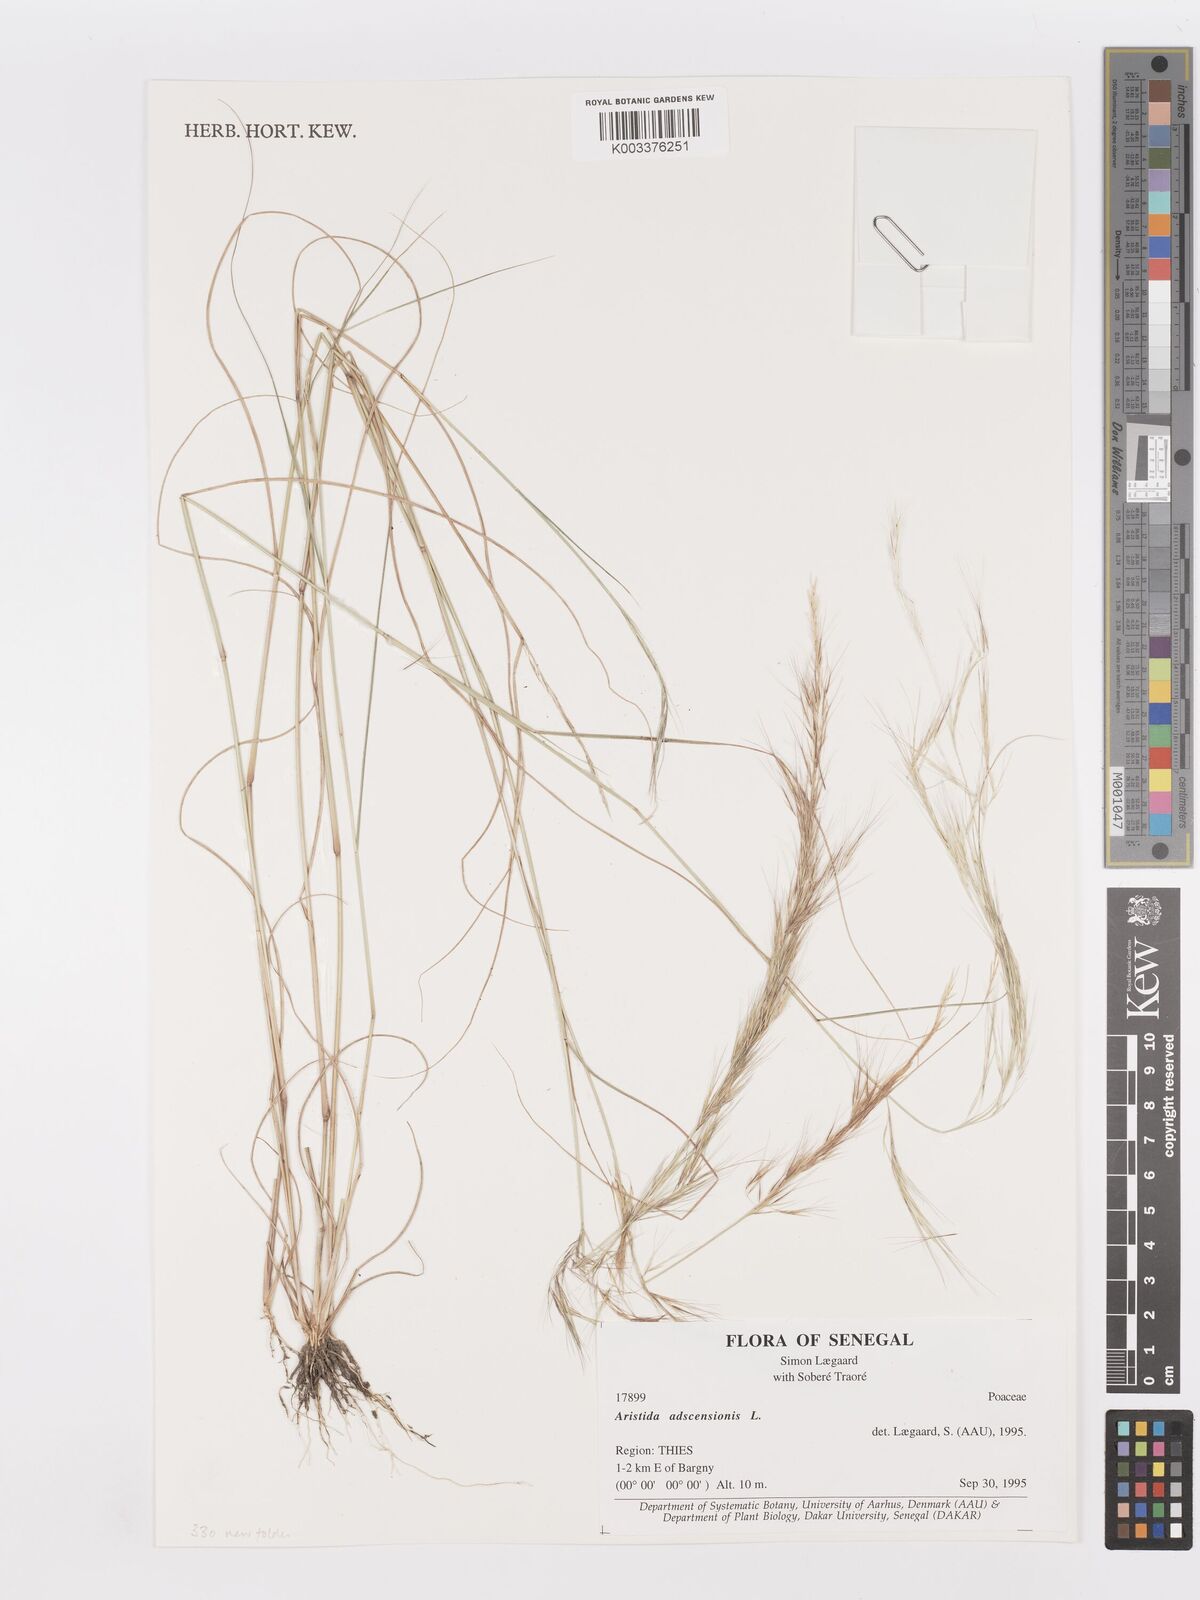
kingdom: Plantae
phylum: Tracheophyta
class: Liliopsida
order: Poales
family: Poaceae
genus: Aristida
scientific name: Aristida adscensionis
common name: Sixweeks threeawn
